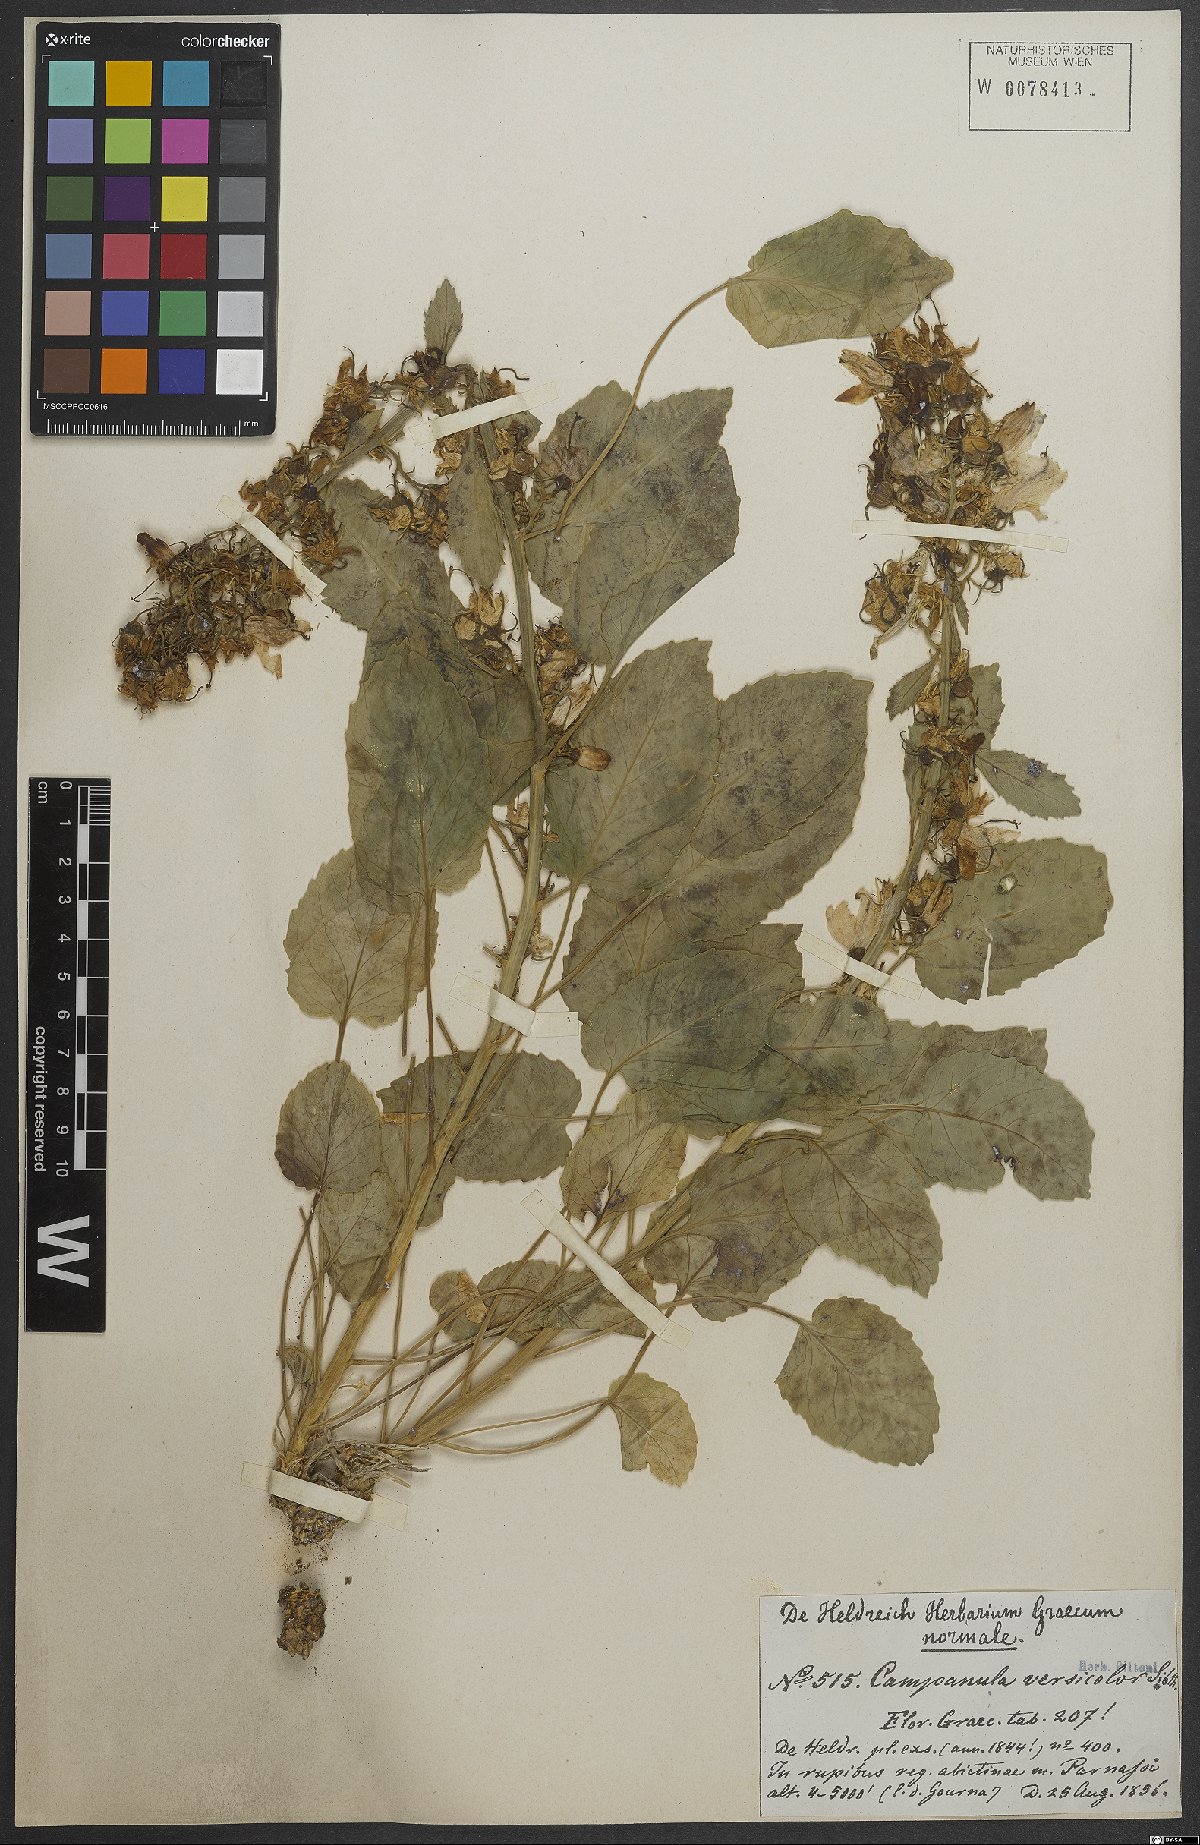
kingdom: Plantae
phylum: Tracheophyta
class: Magnoliopsida
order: Asterales
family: Campanulaceae
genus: Campanula
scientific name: Campanula versicolor
